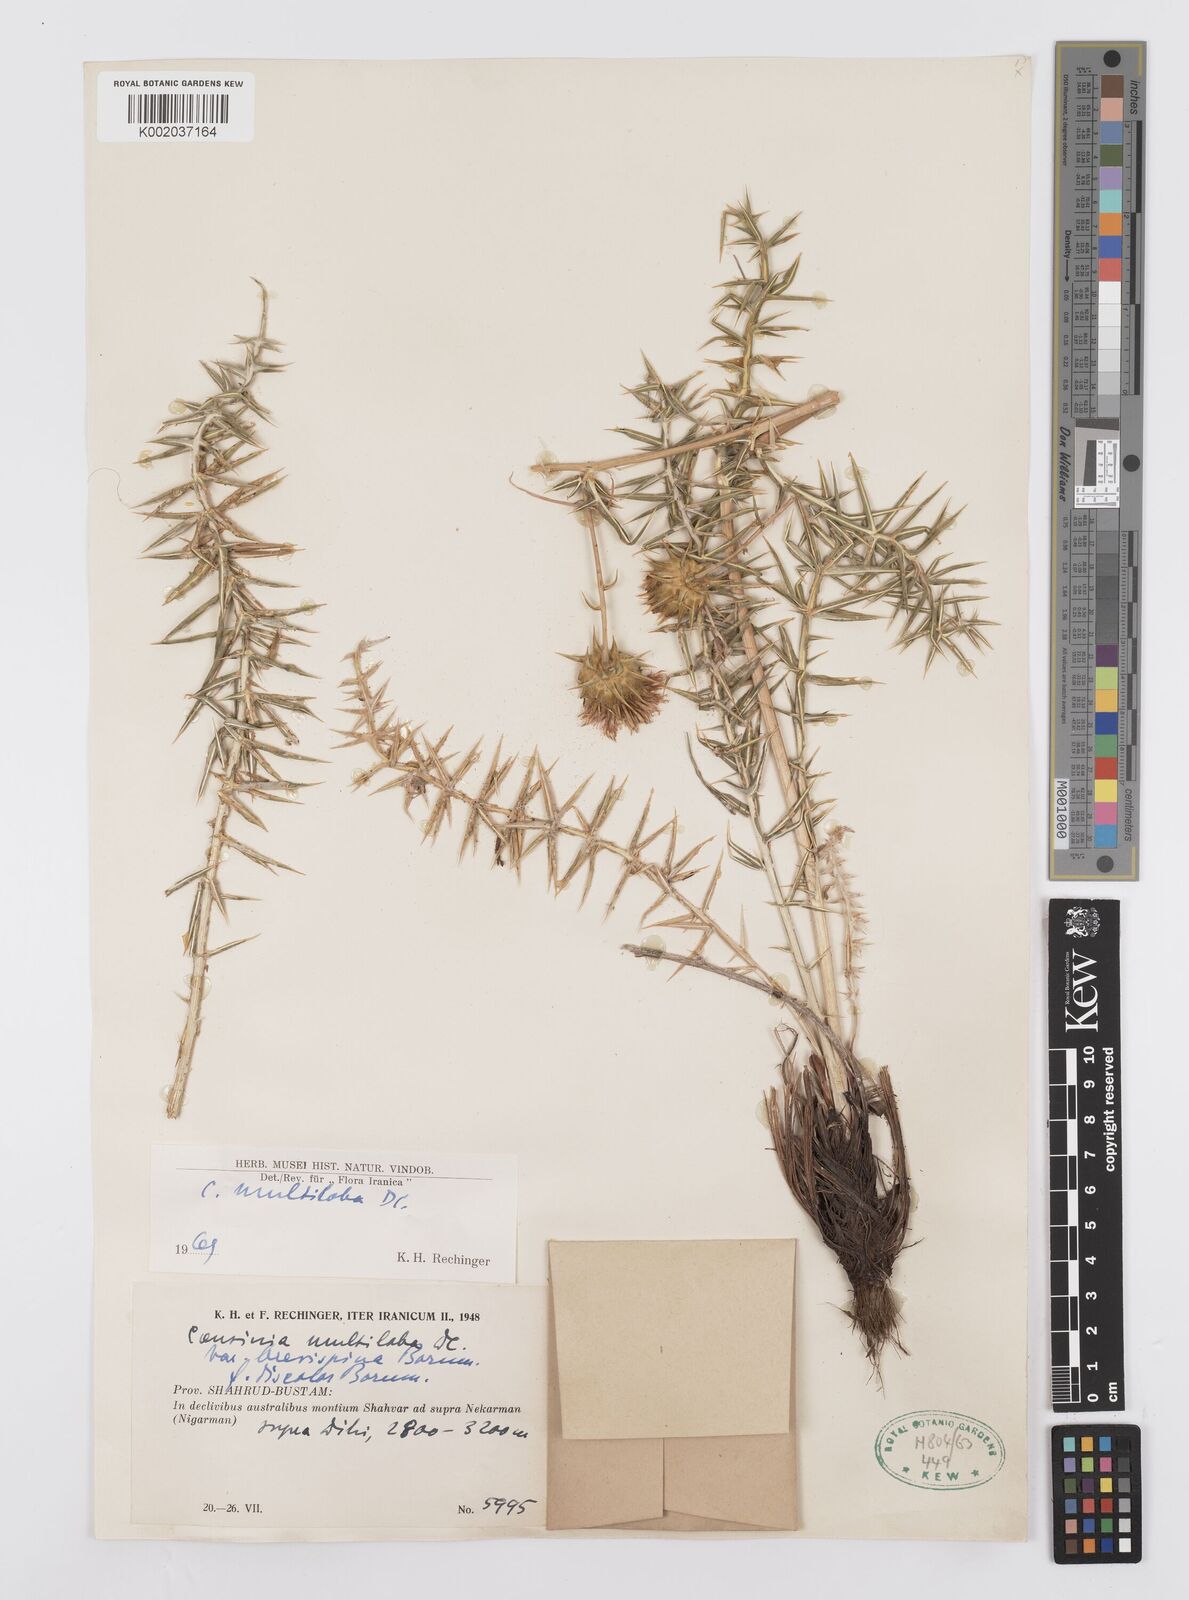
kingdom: Plantae
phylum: Tracheophyta
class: Magnoliopsida
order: Asterales
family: Asteraceae
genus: Cousinia
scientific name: Cousinia multiloba
